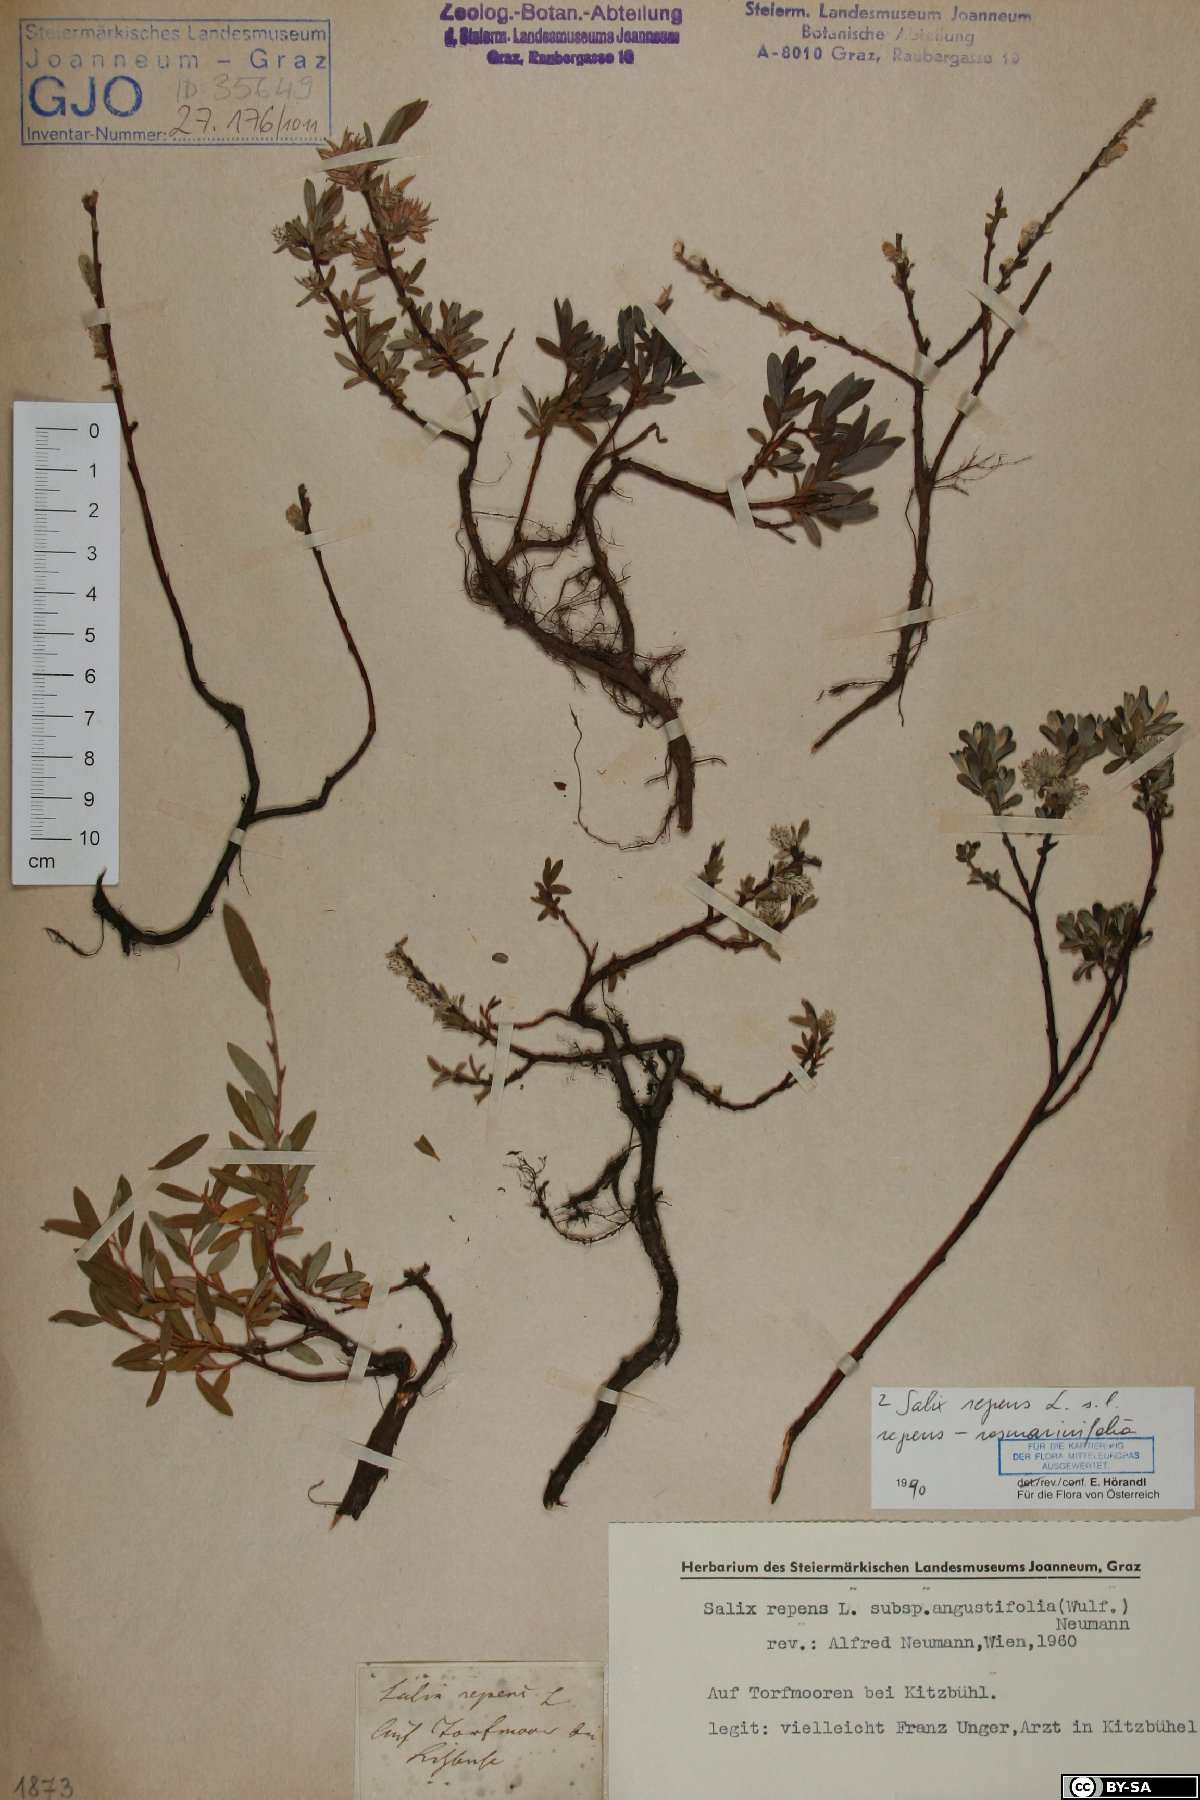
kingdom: Plantae
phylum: Tracheophyta
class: Magnoliopsida
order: Malpighiales
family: Salicaceae
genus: Salix
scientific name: Salix repens
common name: Creeping willow
